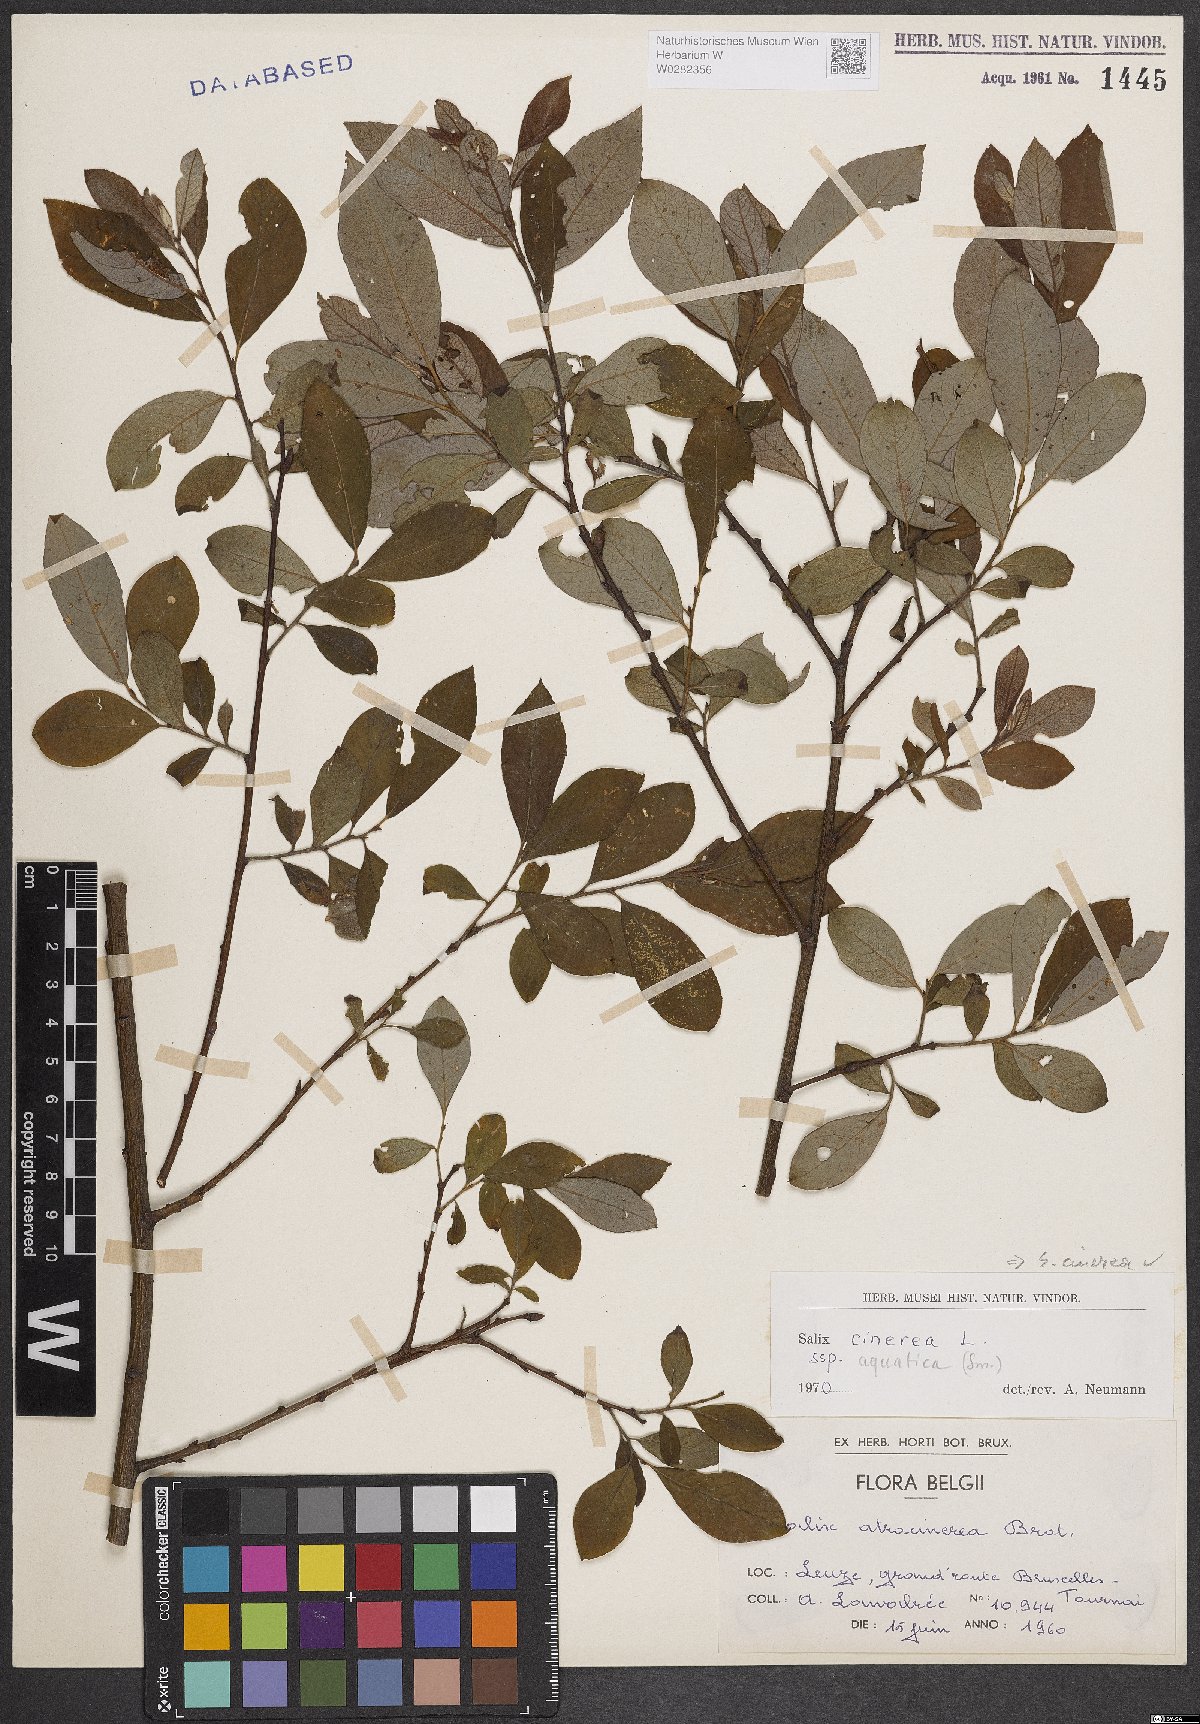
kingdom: Plantae
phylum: Tracheophyta
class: Magnoliopsida
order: Malpighiales
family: Salicaceae
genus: Salix
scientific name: Salix cinerea
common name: Common sallow
